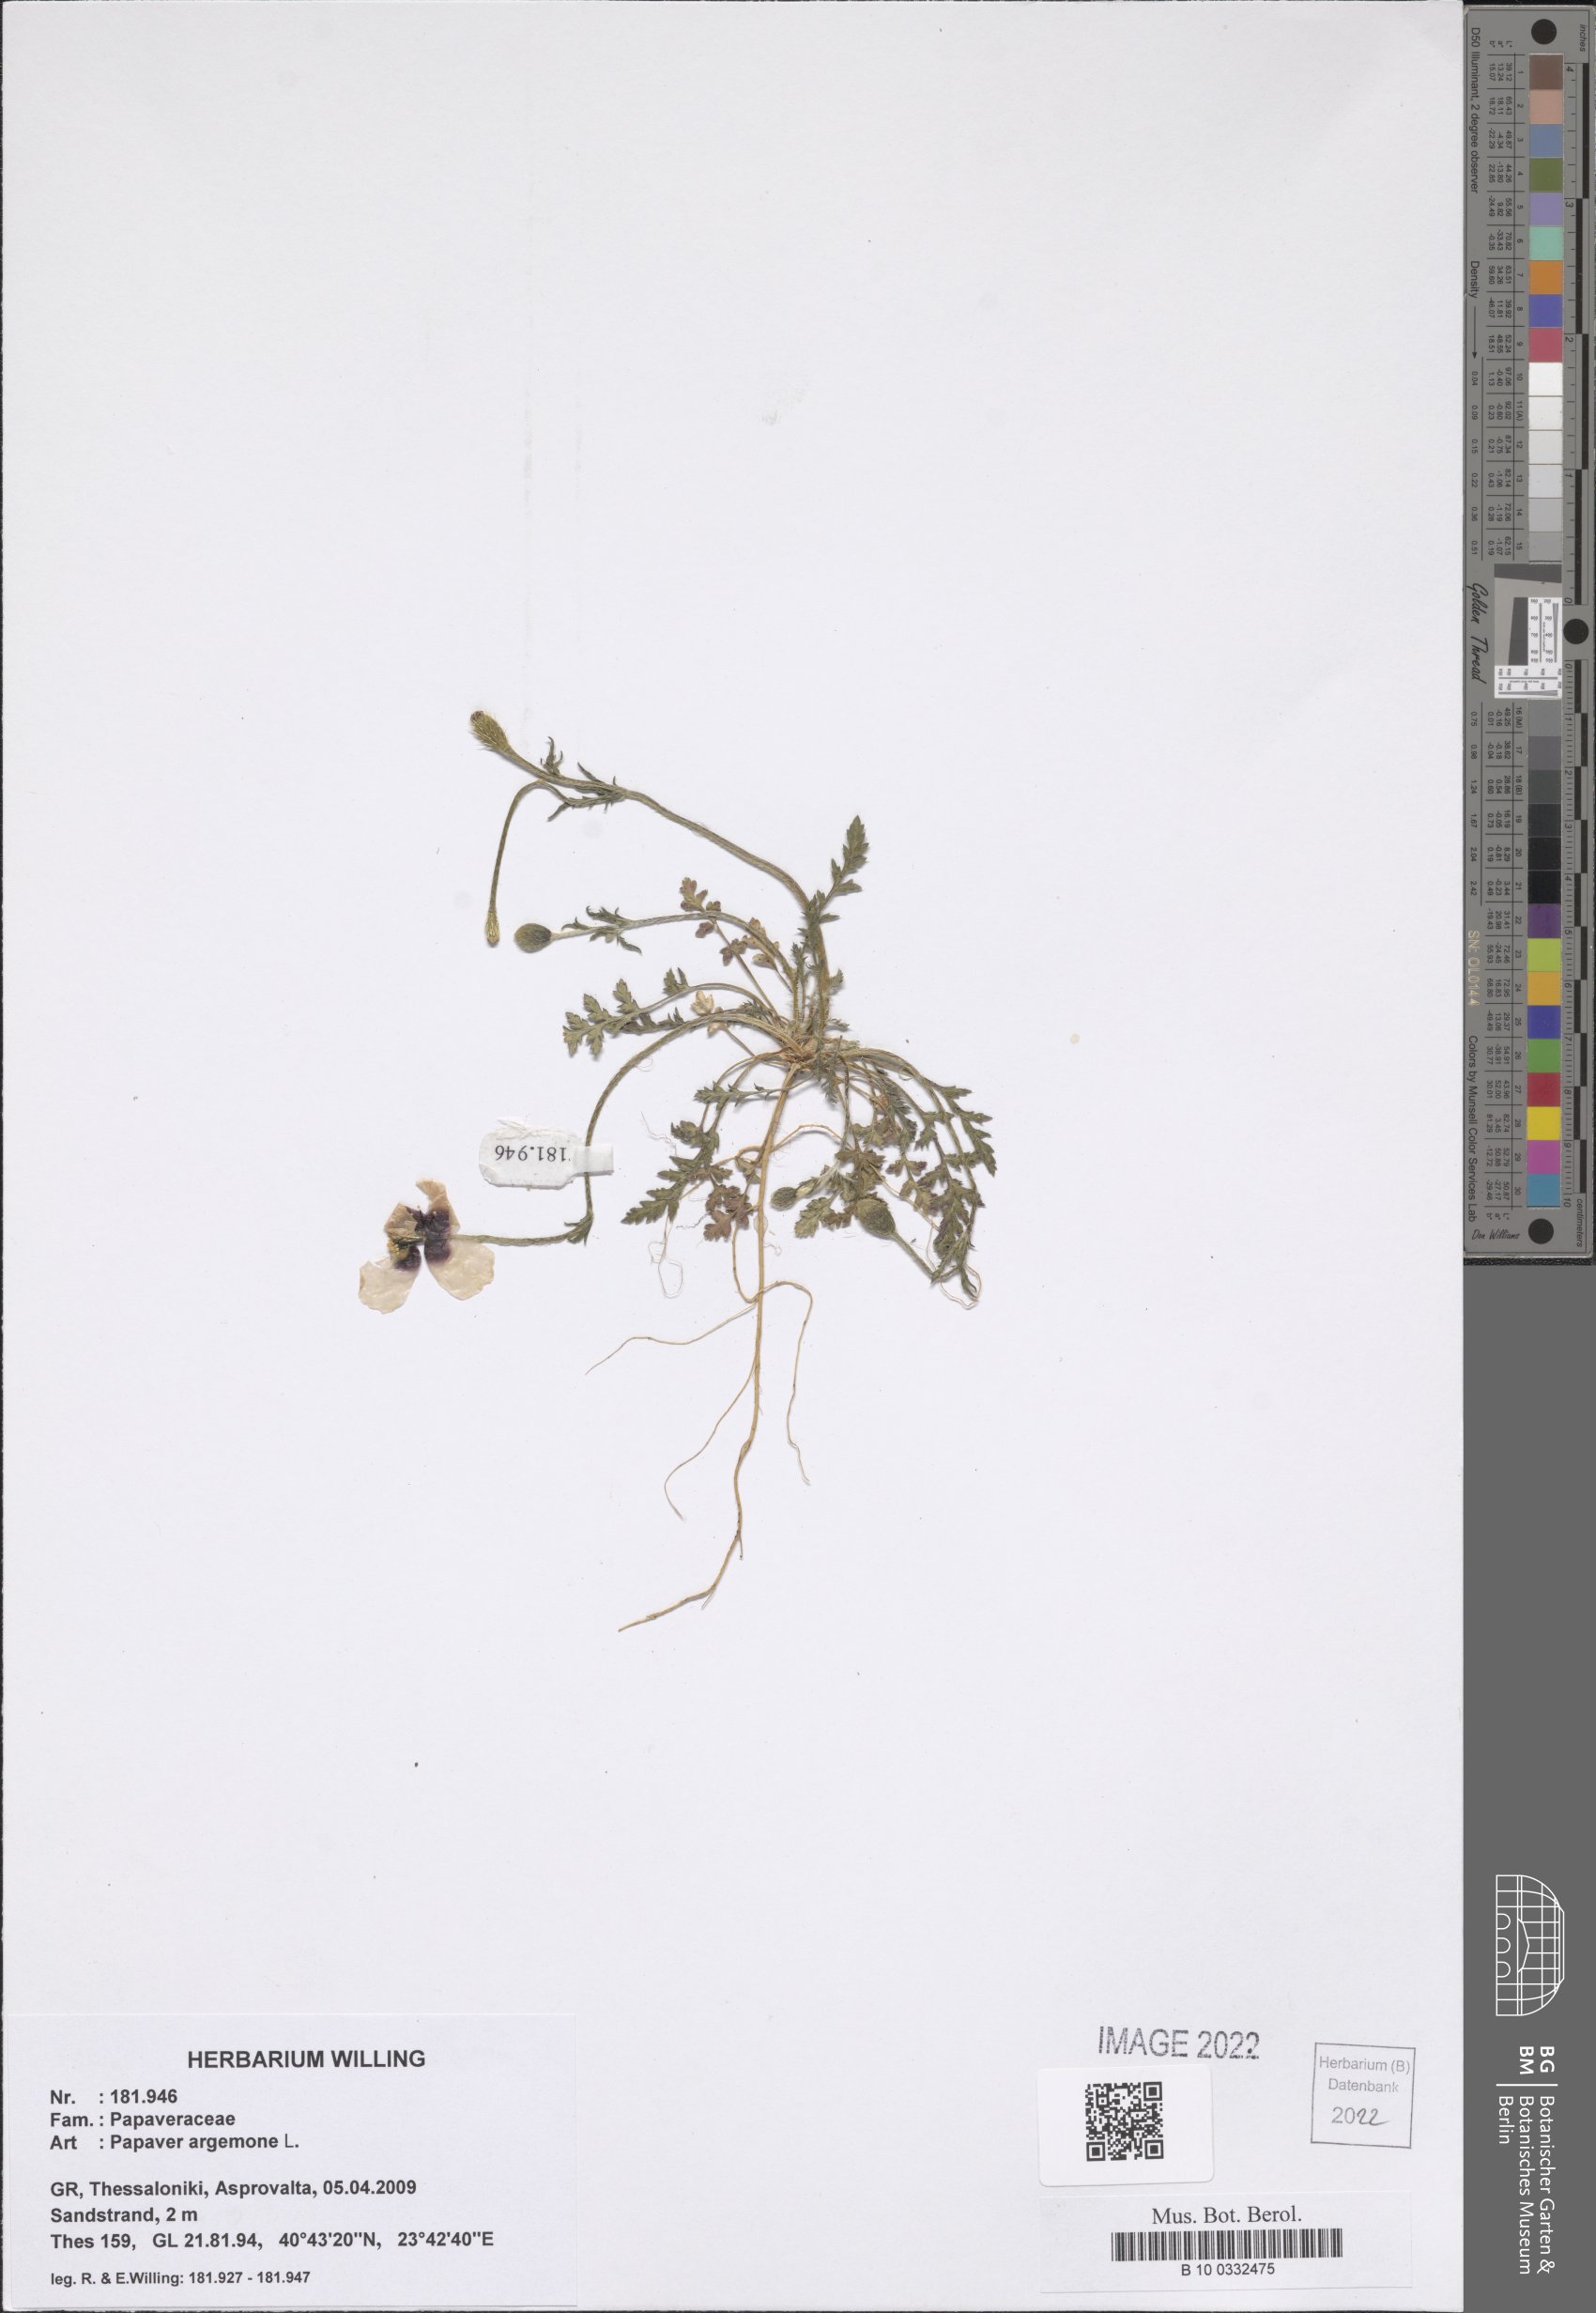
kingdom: Plantae
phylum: Tracheophyta
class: Magnoliopsida
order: Ranunculales
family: Papaveraceae
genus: Roemeria
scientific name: Roemeria argemone
